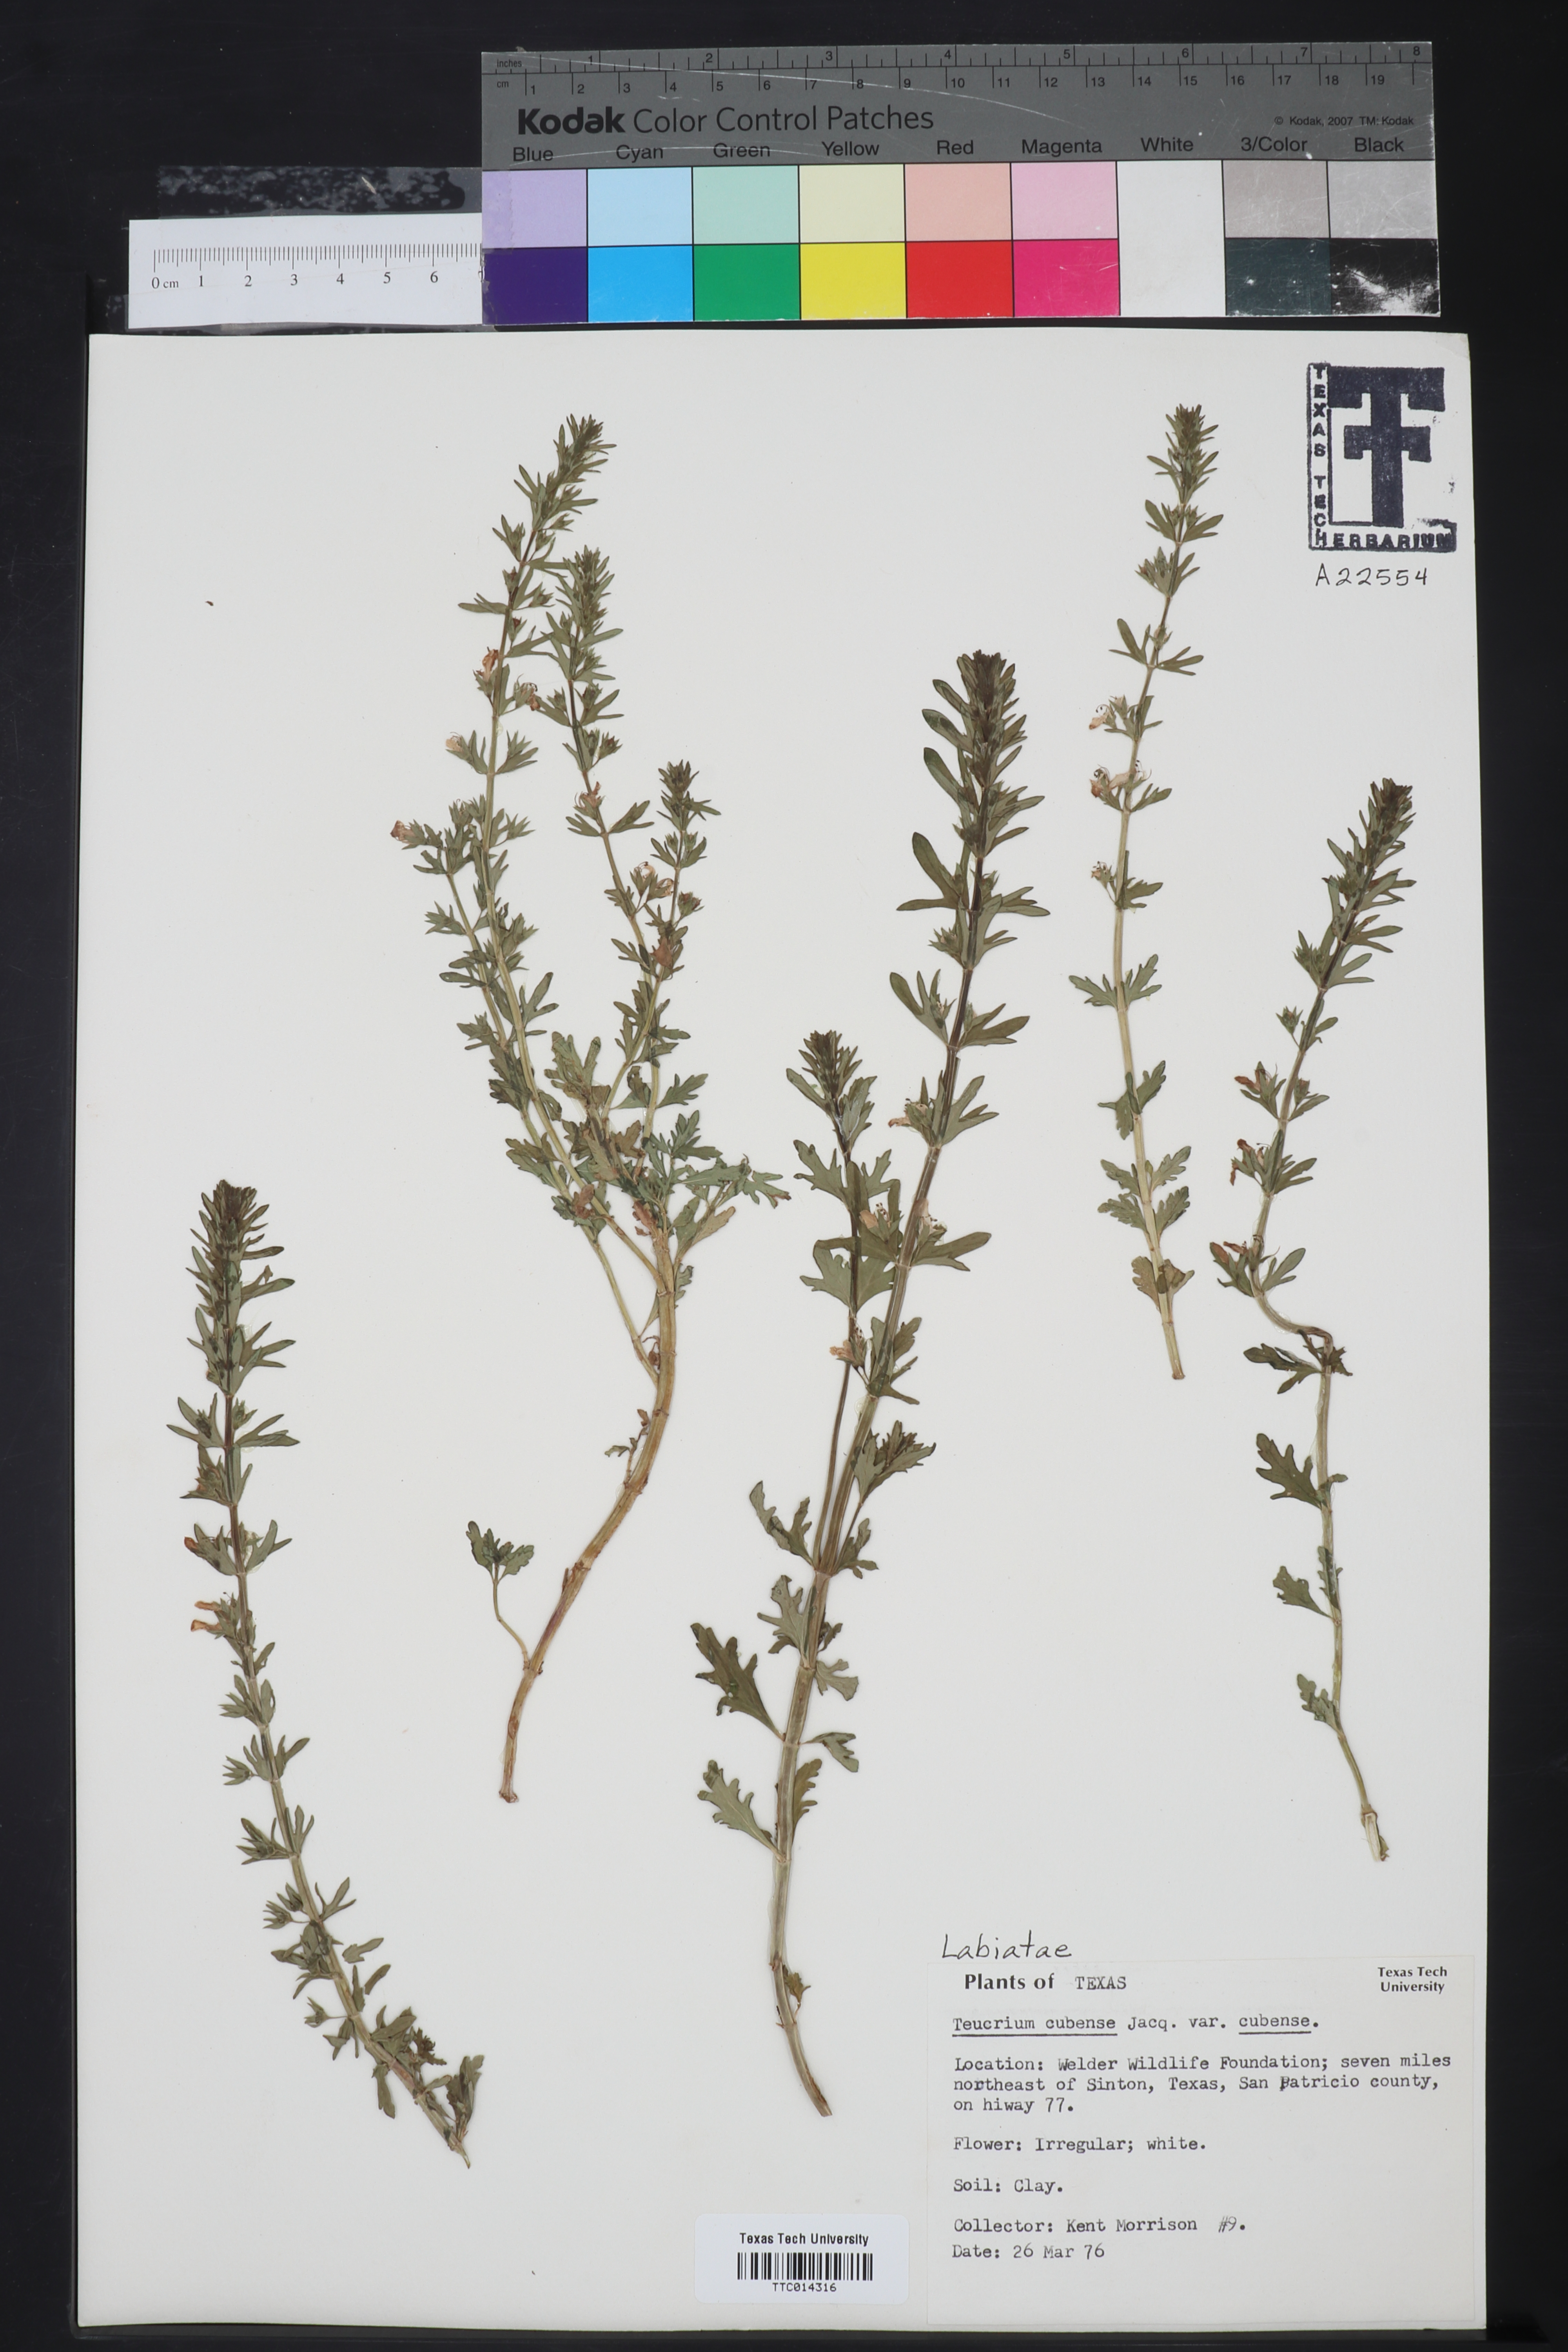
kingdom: Plantae
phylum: Tracheophyta
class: Magnoliopsida
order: Lamiales
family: Lamiaceae
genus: Teucrium
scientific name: Teucrium cubense
